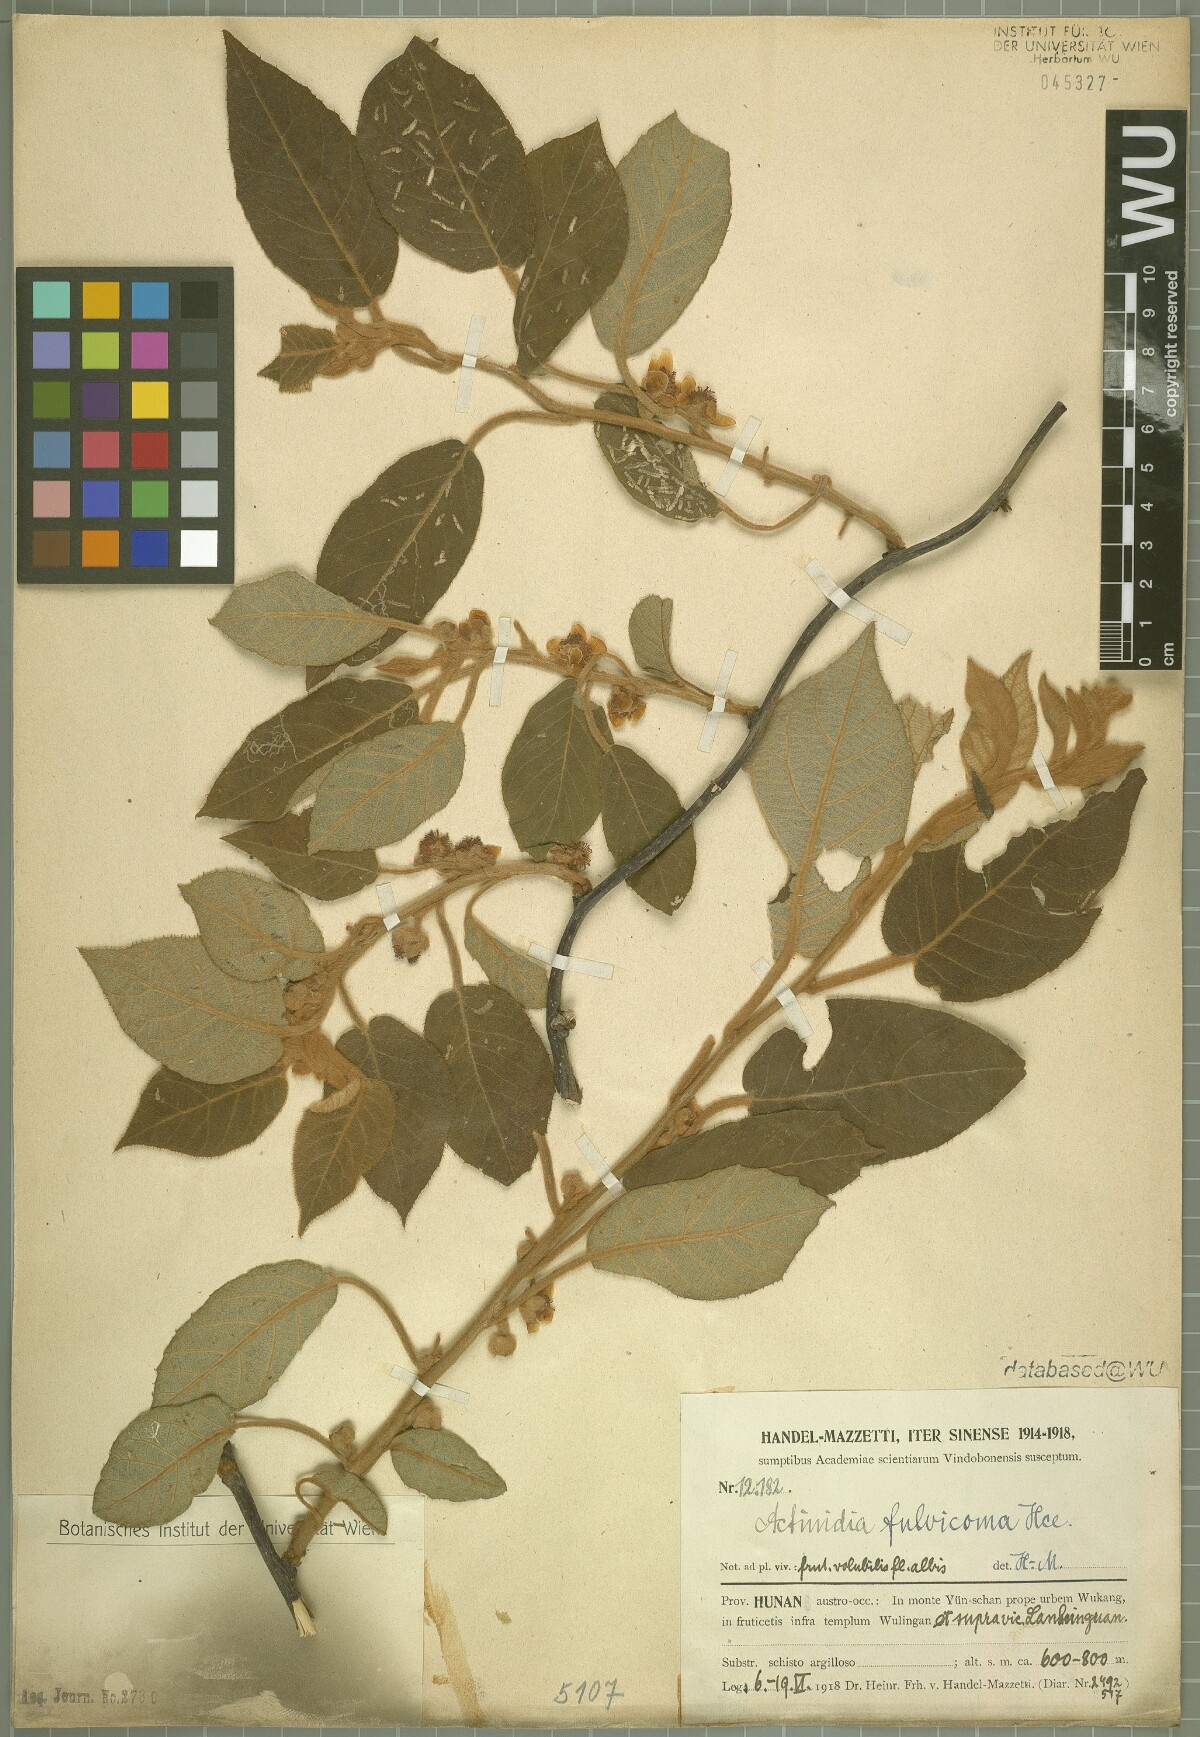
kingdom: Plantae
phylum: Tracheophyta
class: Magnoliopsida
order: Ericales
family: Actinidiaceae
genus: Actinidia
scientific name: Actinidia fulvicoma
